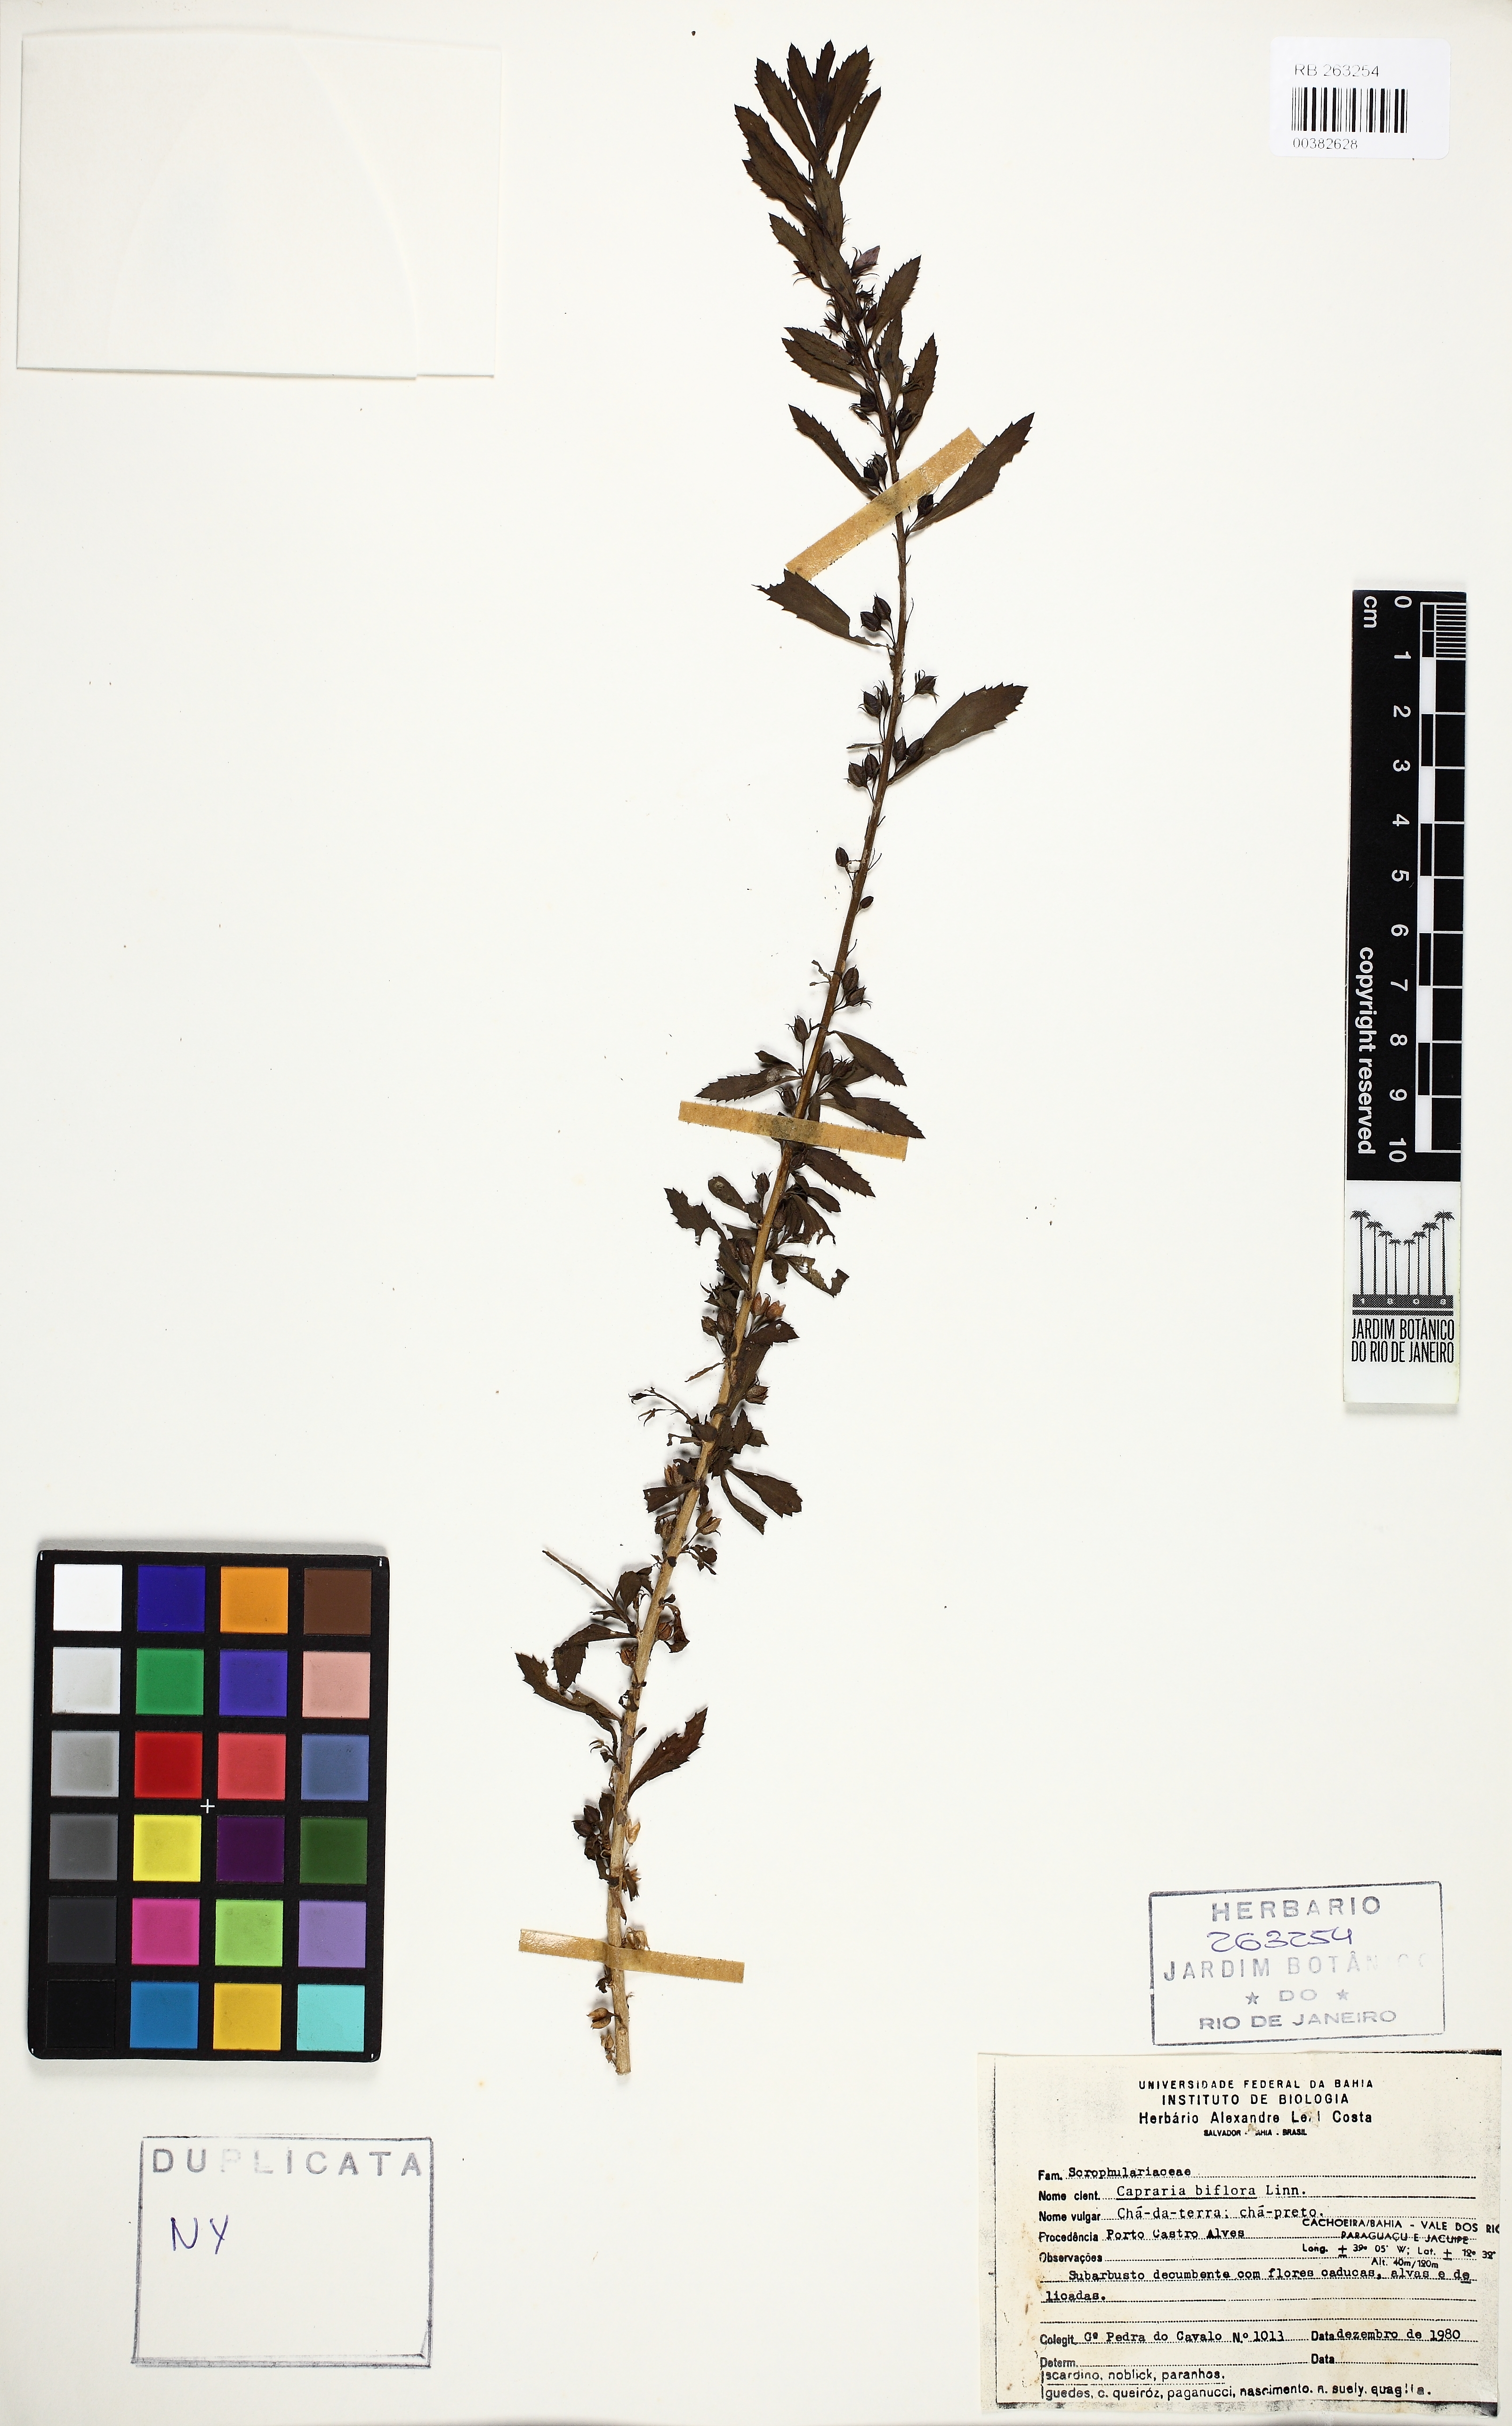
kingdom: Plantae
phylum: Tracheophyta
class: Magnoliopsida
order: Lamiales
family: Scrophulariaceae
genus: Capraria
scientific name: Capraria biflora
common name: Goatweed
